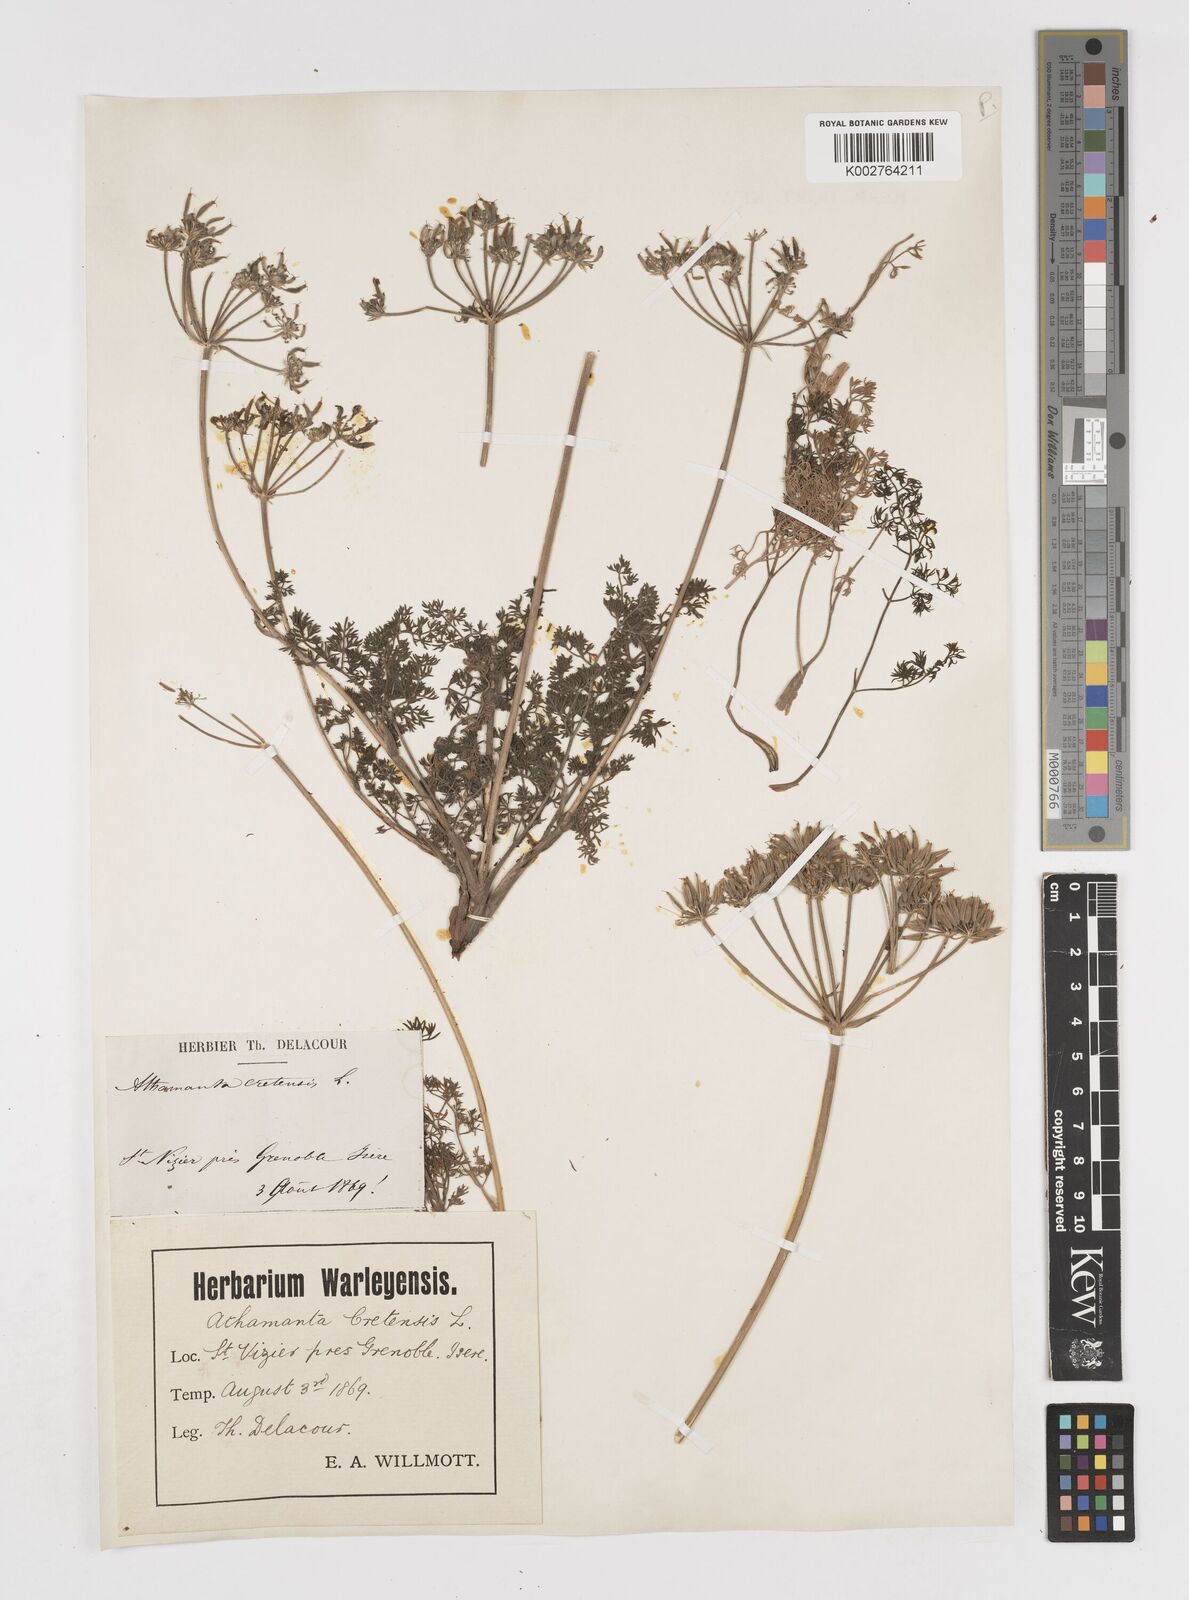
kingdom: Plantae
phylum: Tracheophyta
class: Magnoliopsida
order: Apiales
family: Apiaceae
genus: Athamanta
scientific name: Athamanta cretensis
